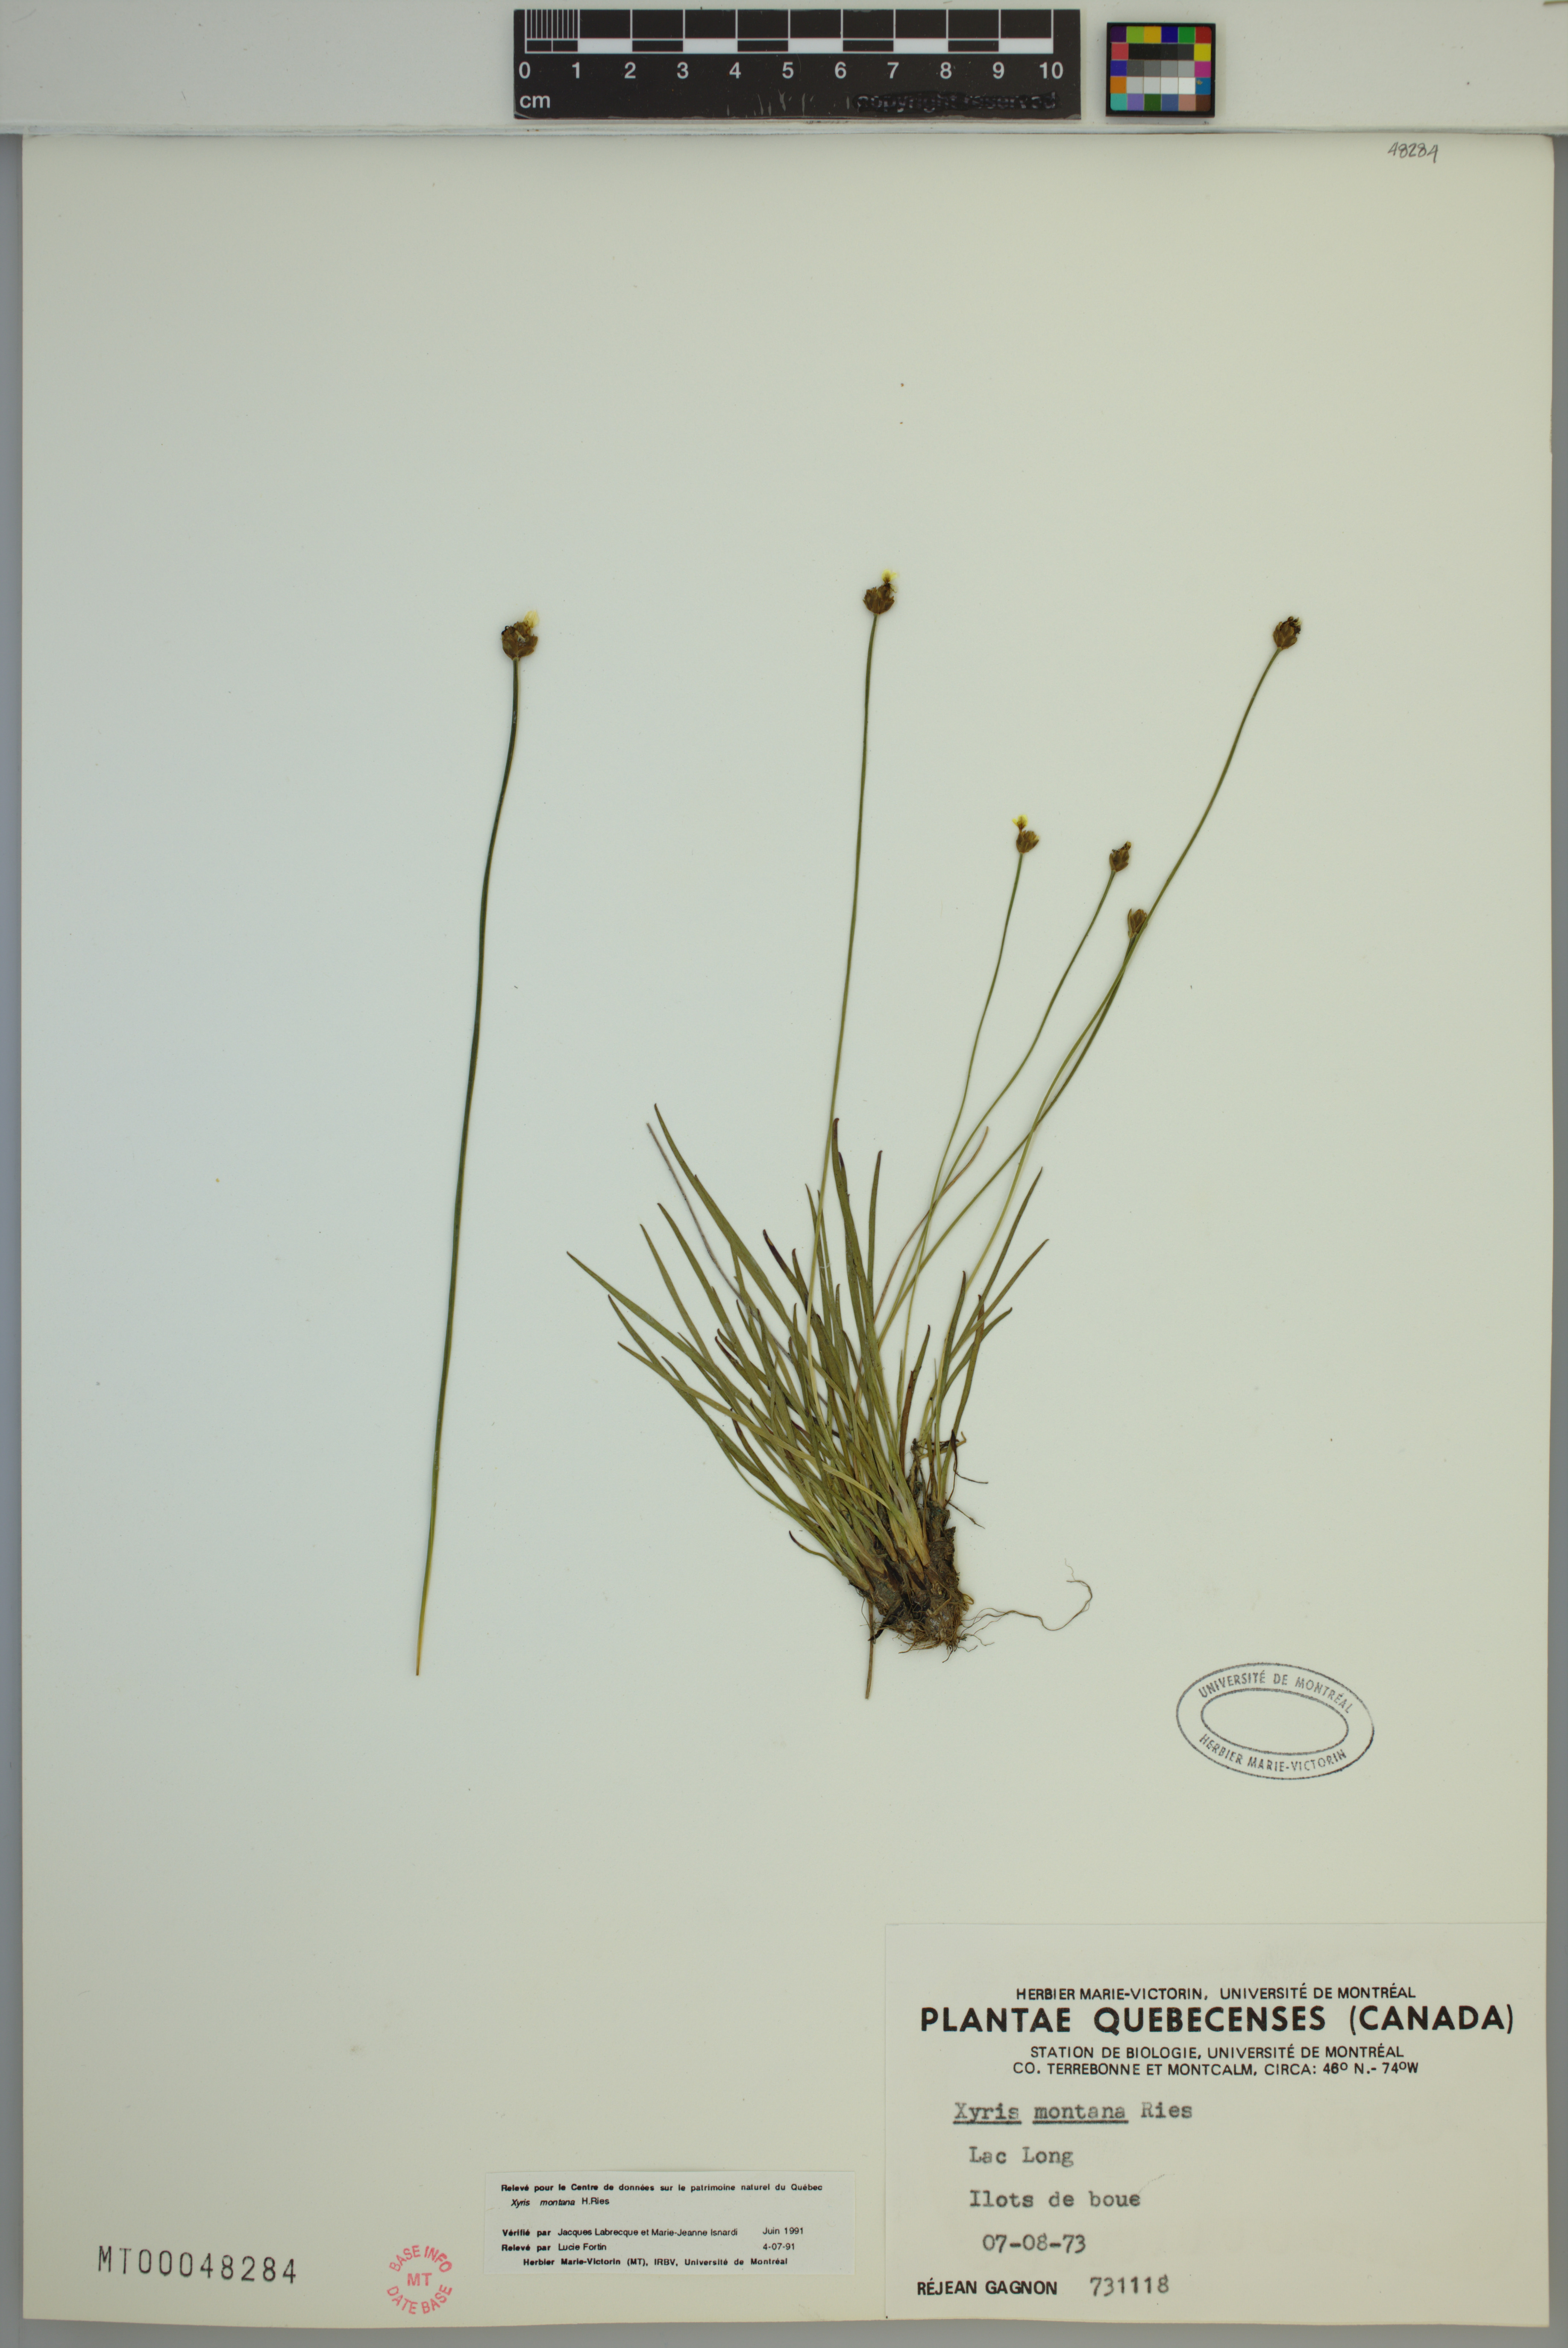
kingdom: Plantae
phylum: Tracheophyta
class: Liliopsida
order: Poales
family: Xyridaceae
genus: Xyris
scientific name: Xyris montana
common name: Northern yellow-eyed-grass
